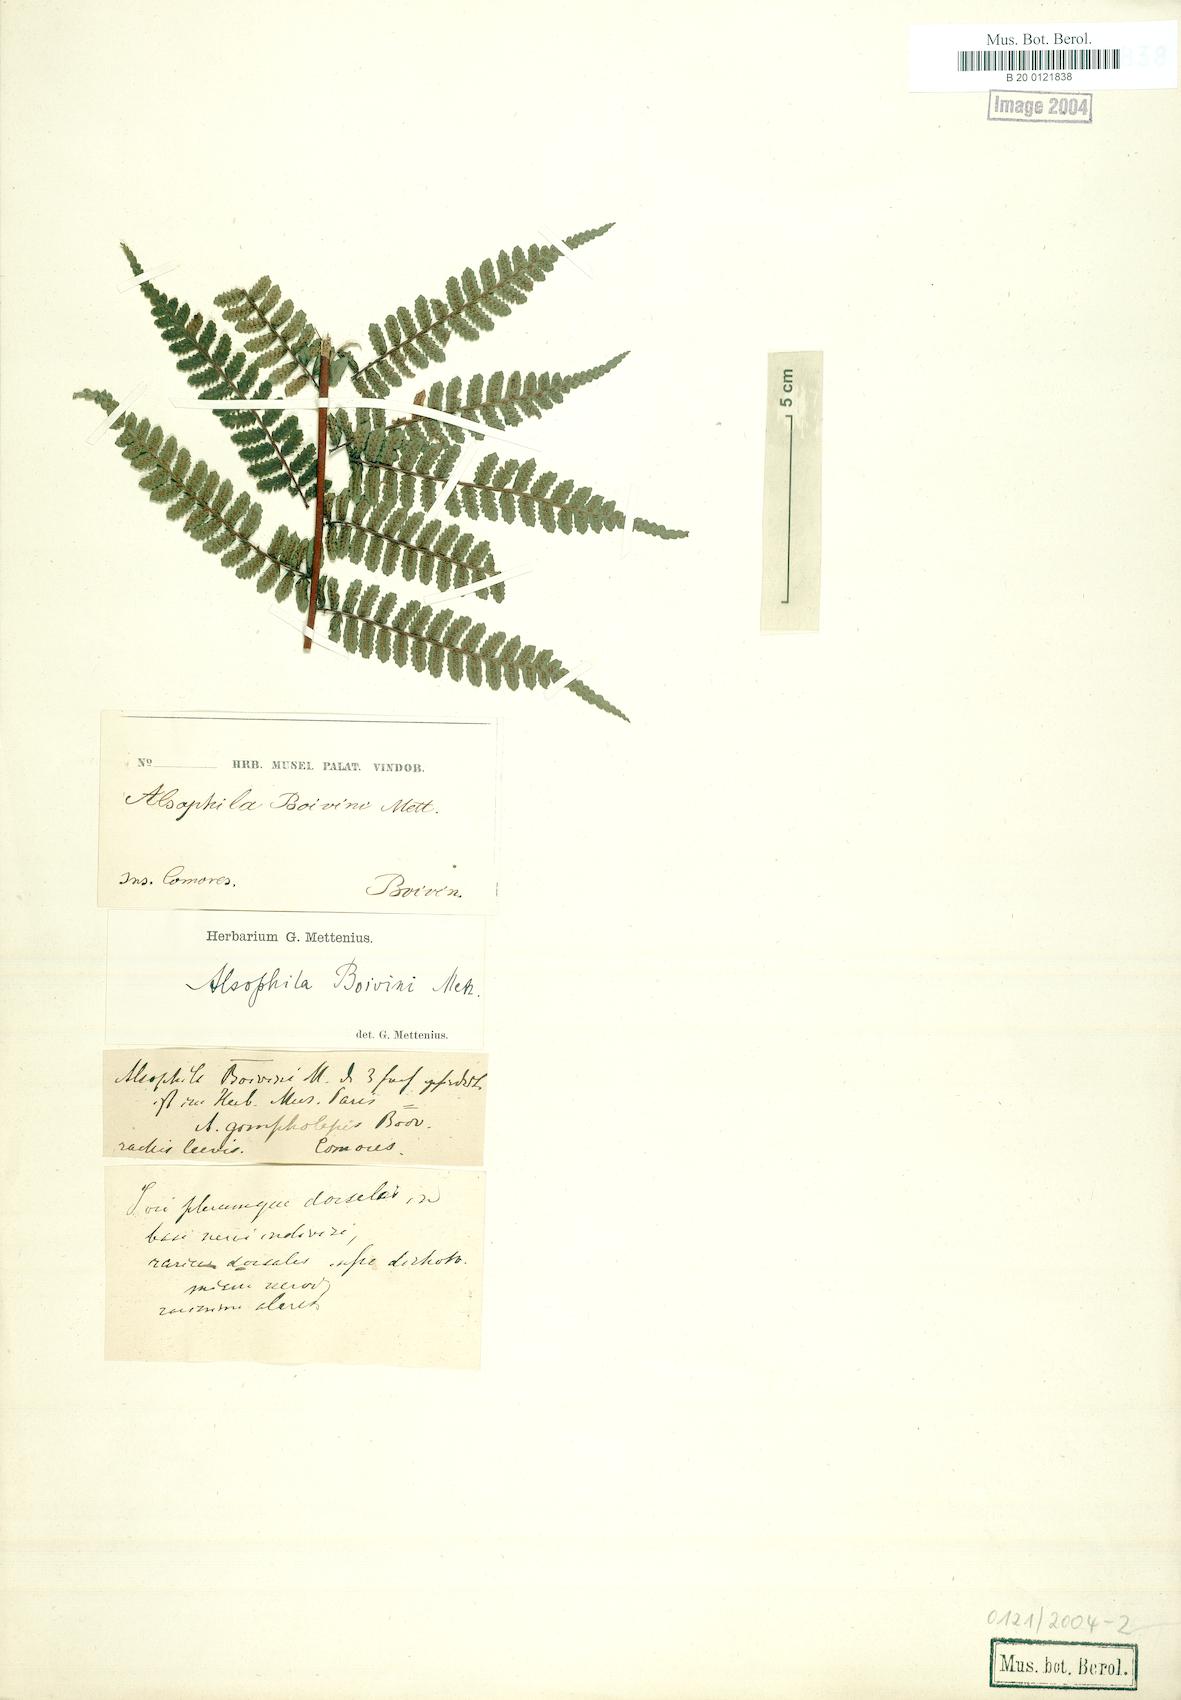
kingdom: Plantae
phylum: Tracheophyta
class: Polypodiopsida
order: Cyatheales
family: Cyatheaceae
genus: Gymnosphaera
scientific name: Gymnosphaera boivinii
